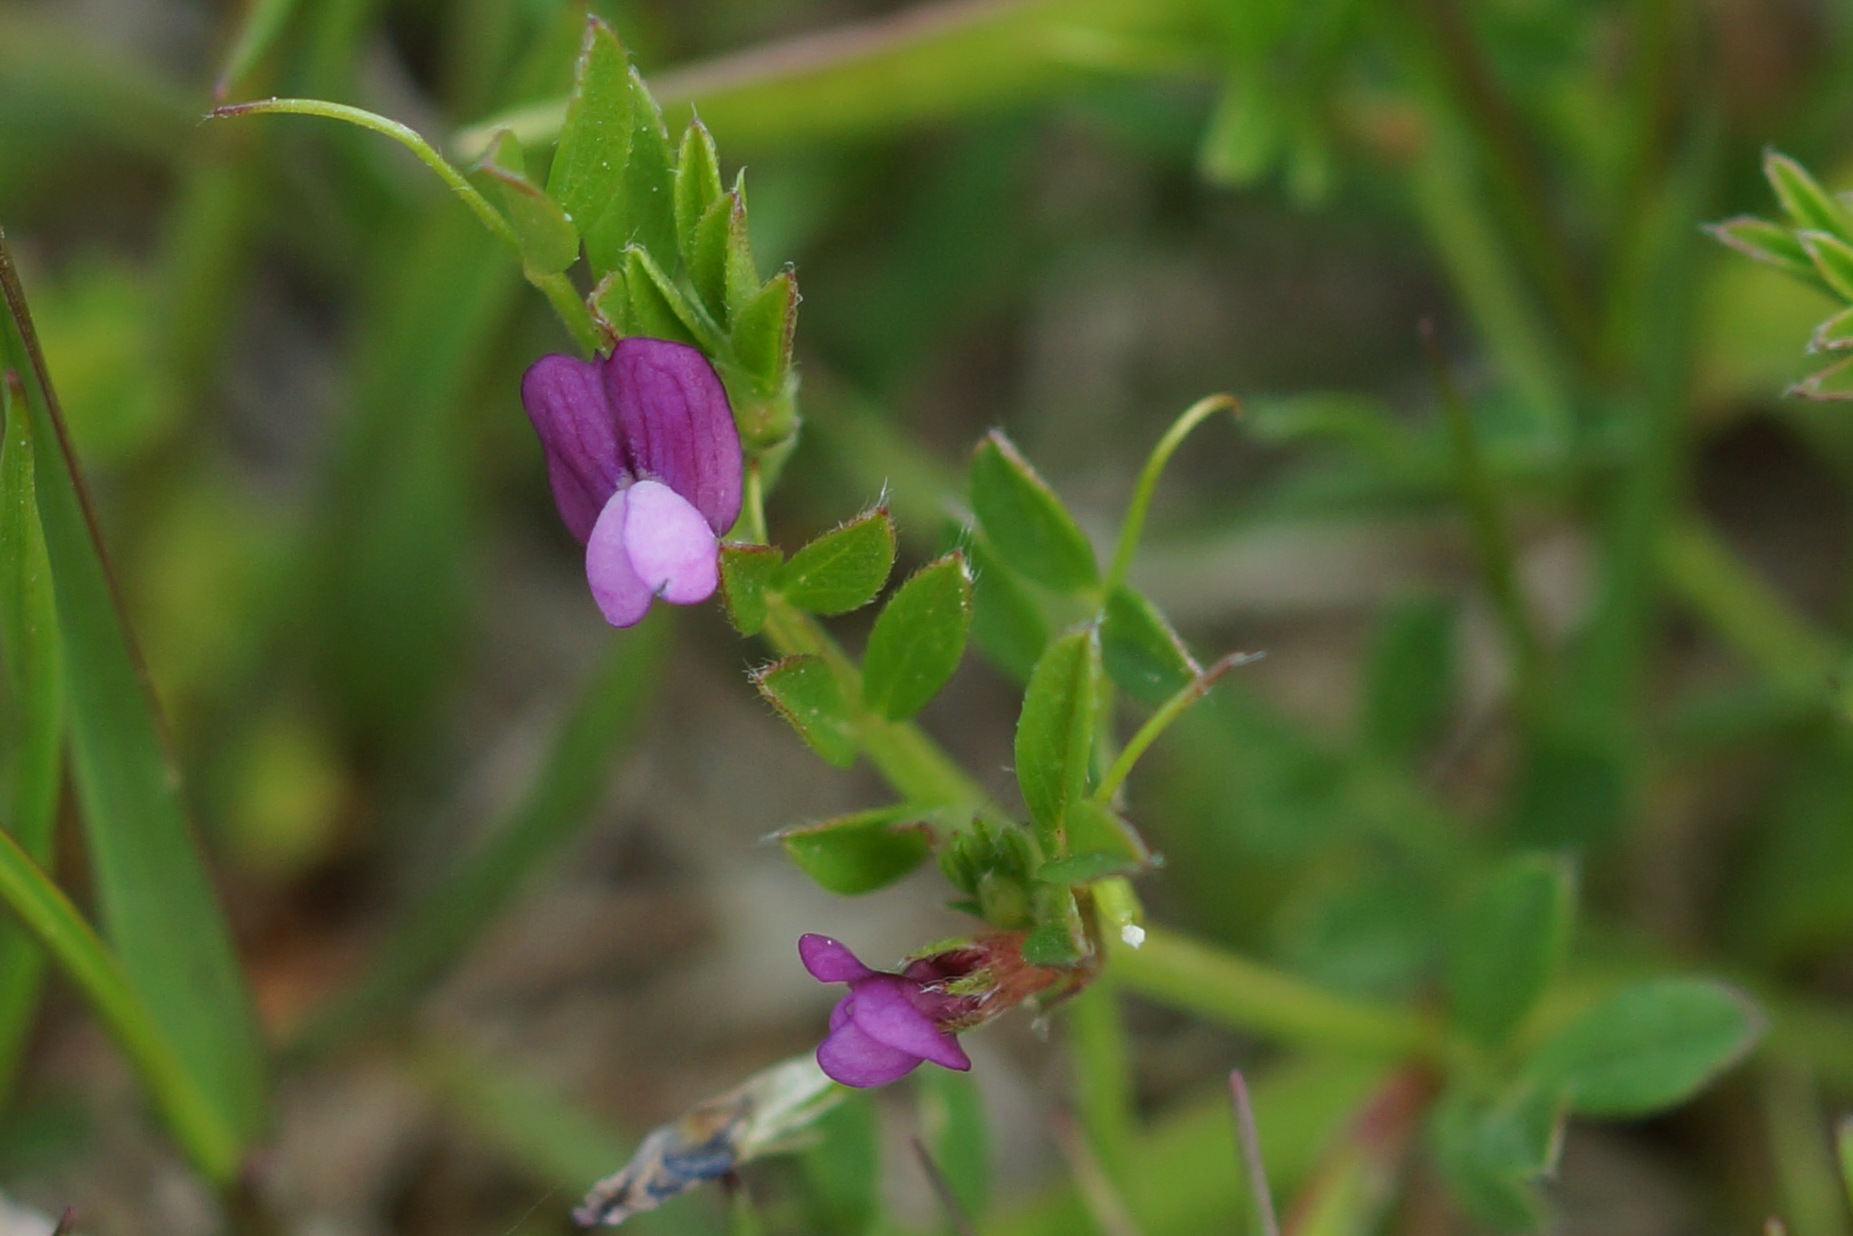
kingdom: Plantae
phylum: Tracheophyta
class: Magnoliopsida
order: Fabales
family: Fabaceae
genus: Vicia
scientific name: Vicia lathyroides
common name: Vår-vikke
